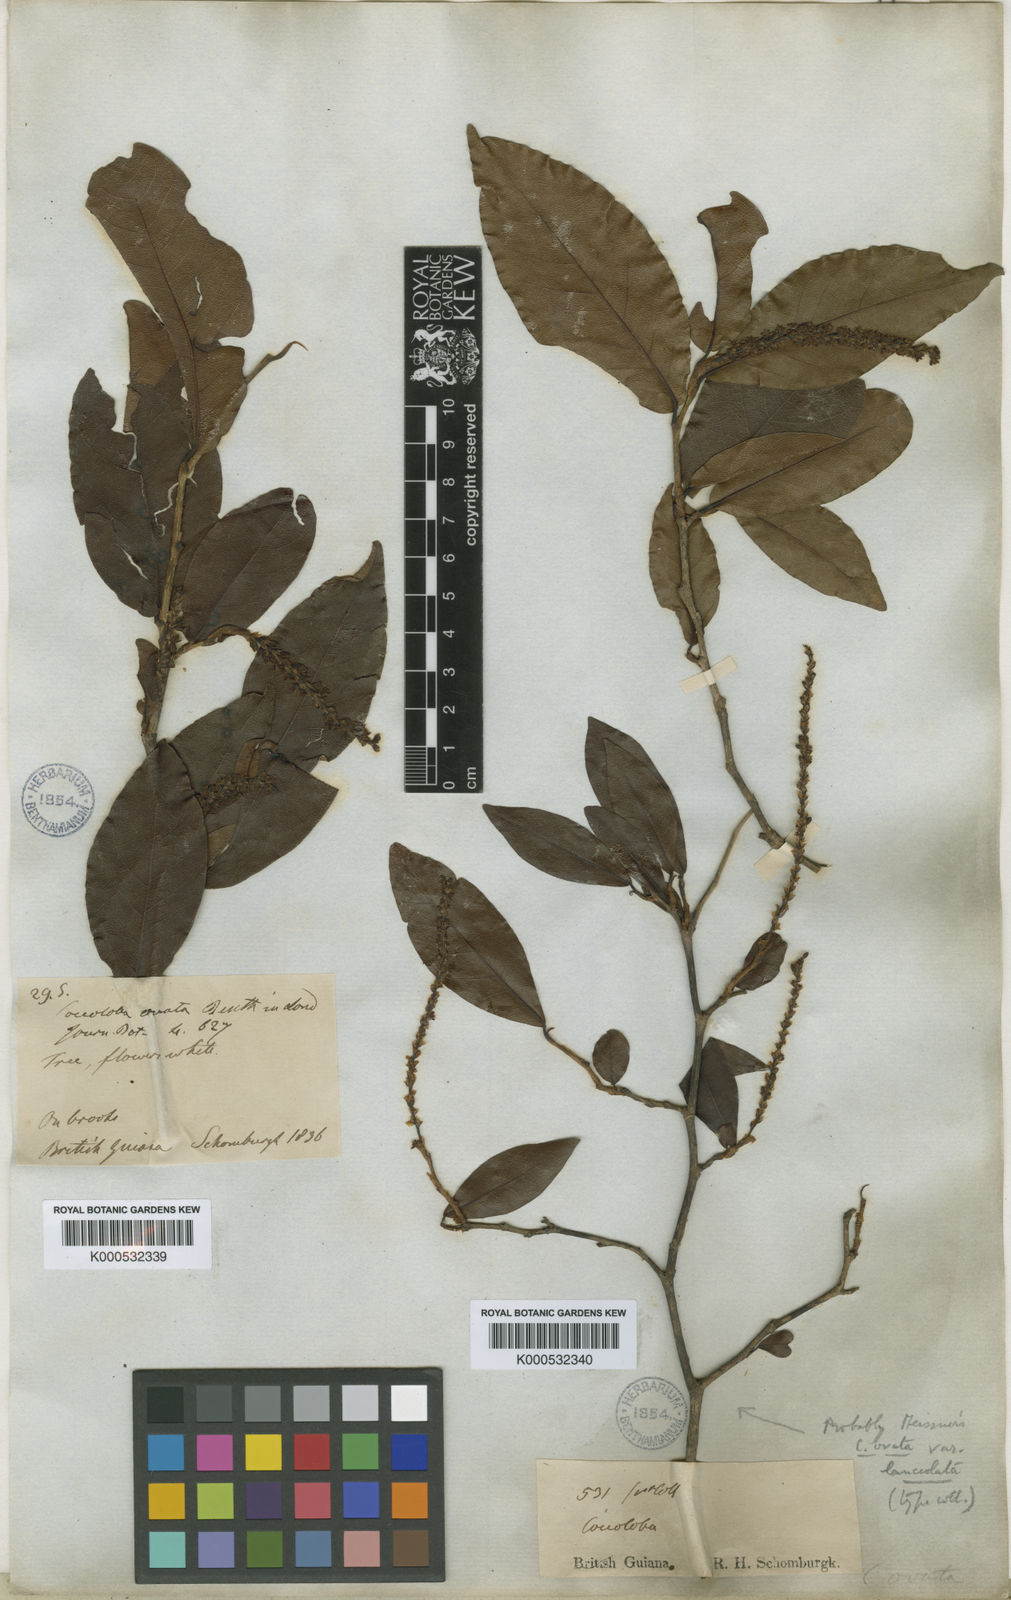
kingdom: Plantae
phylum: Tracheophyta
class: Magnoliopsida
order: Caryophyllales
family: Polygonaceae
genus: Coccoloba
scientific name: Coccoloba ovata
